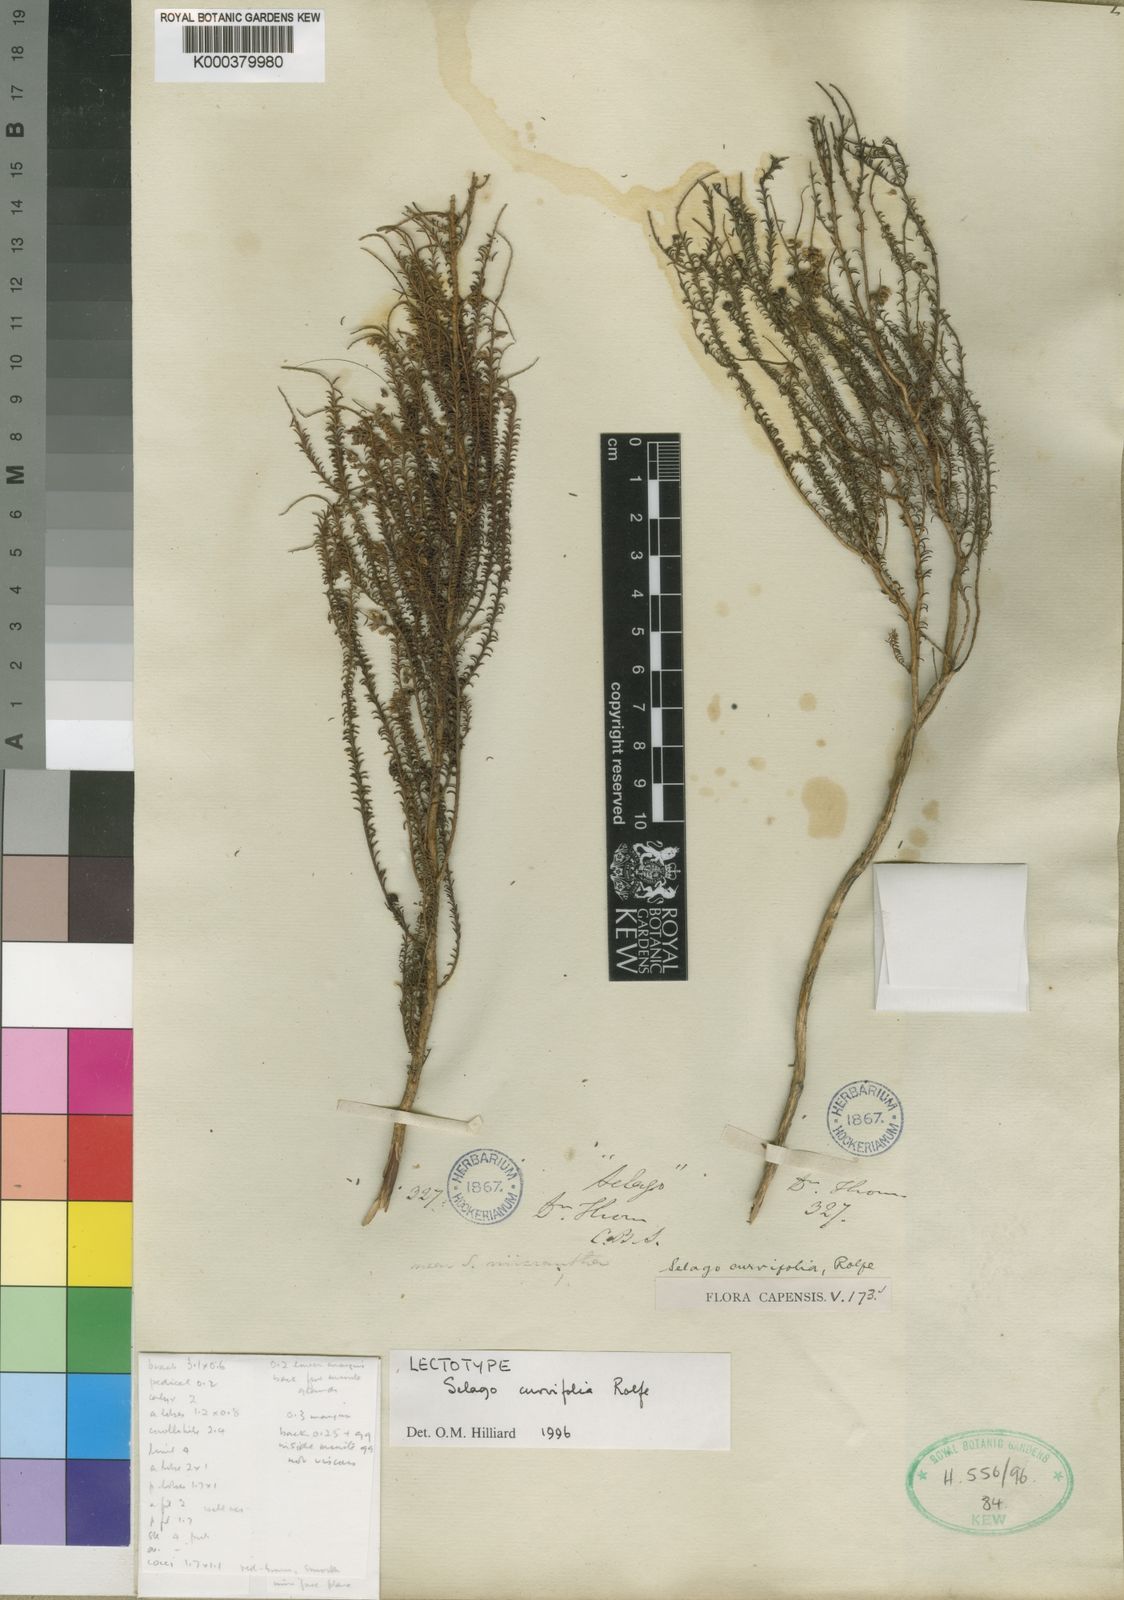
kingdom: Plantae
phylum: Tracheophyta
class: Magnoliopsida
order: Lamiales
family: Scrophulariaceae
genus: Selago
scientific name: Selago curvifolia
